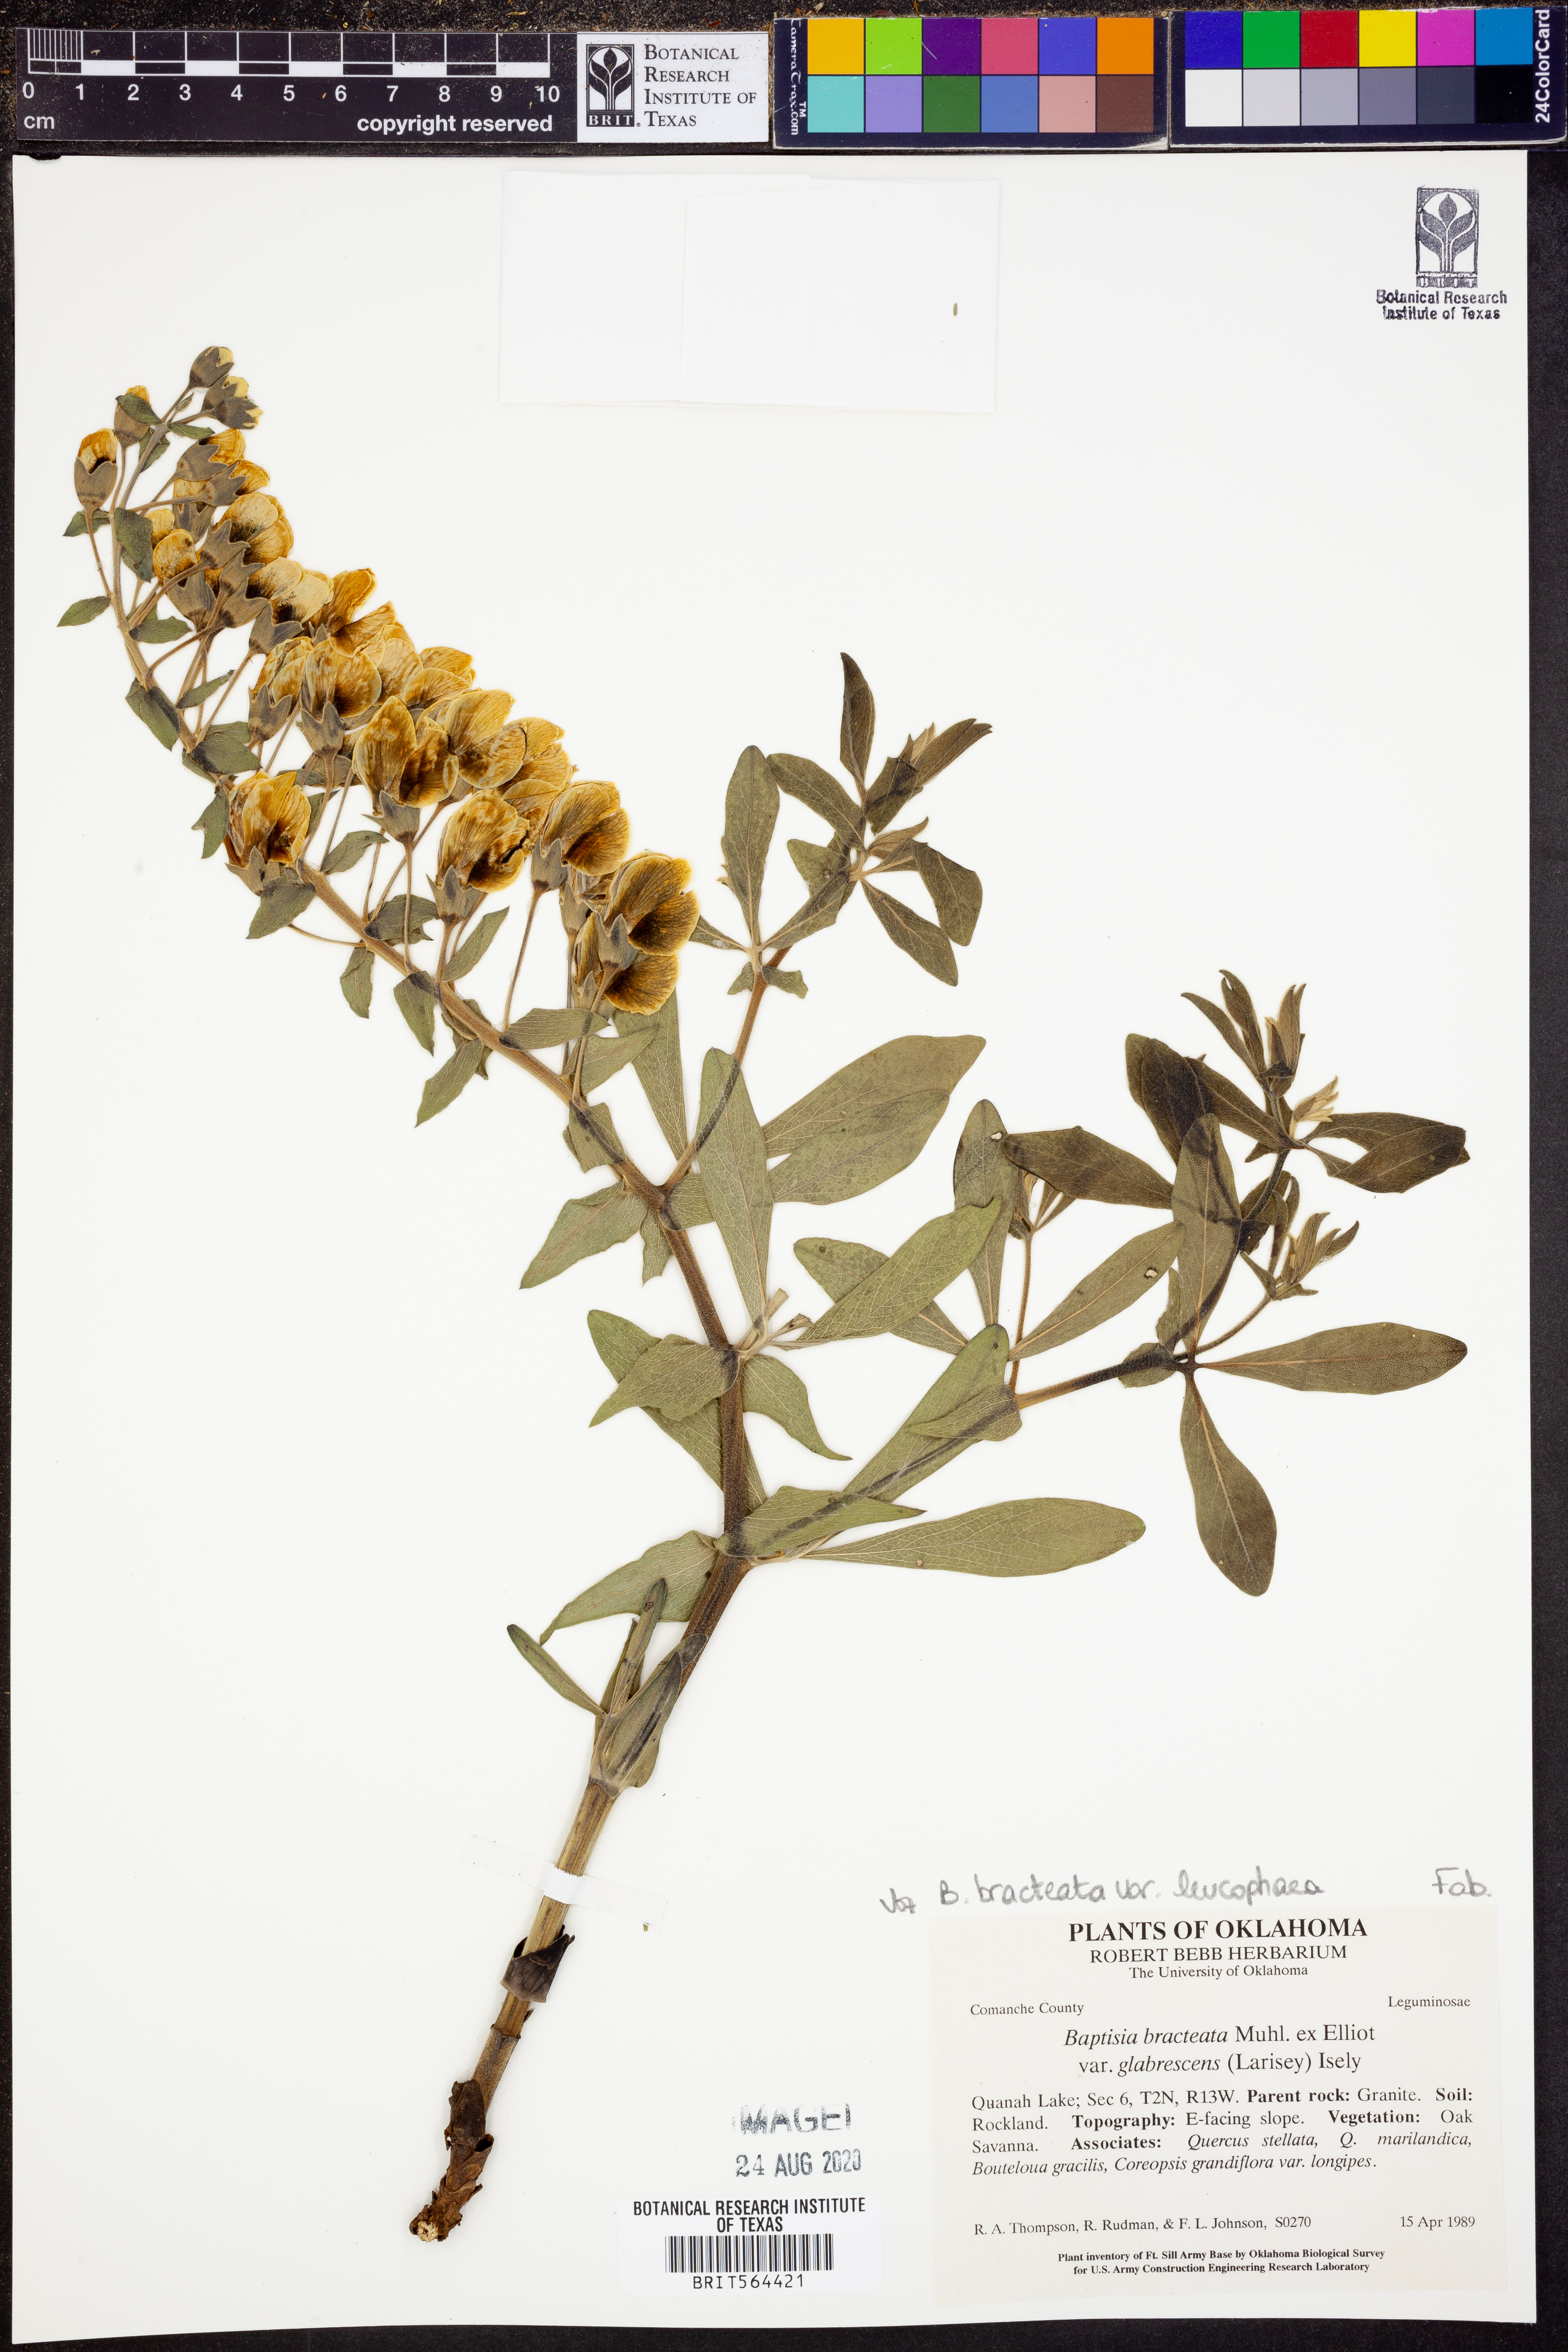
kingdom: Plantae
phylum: Tracheophyta
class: Magnoliopsida
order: Fabales
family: Fabaceae
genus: Baptisia
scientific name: Baptisia bracteata
